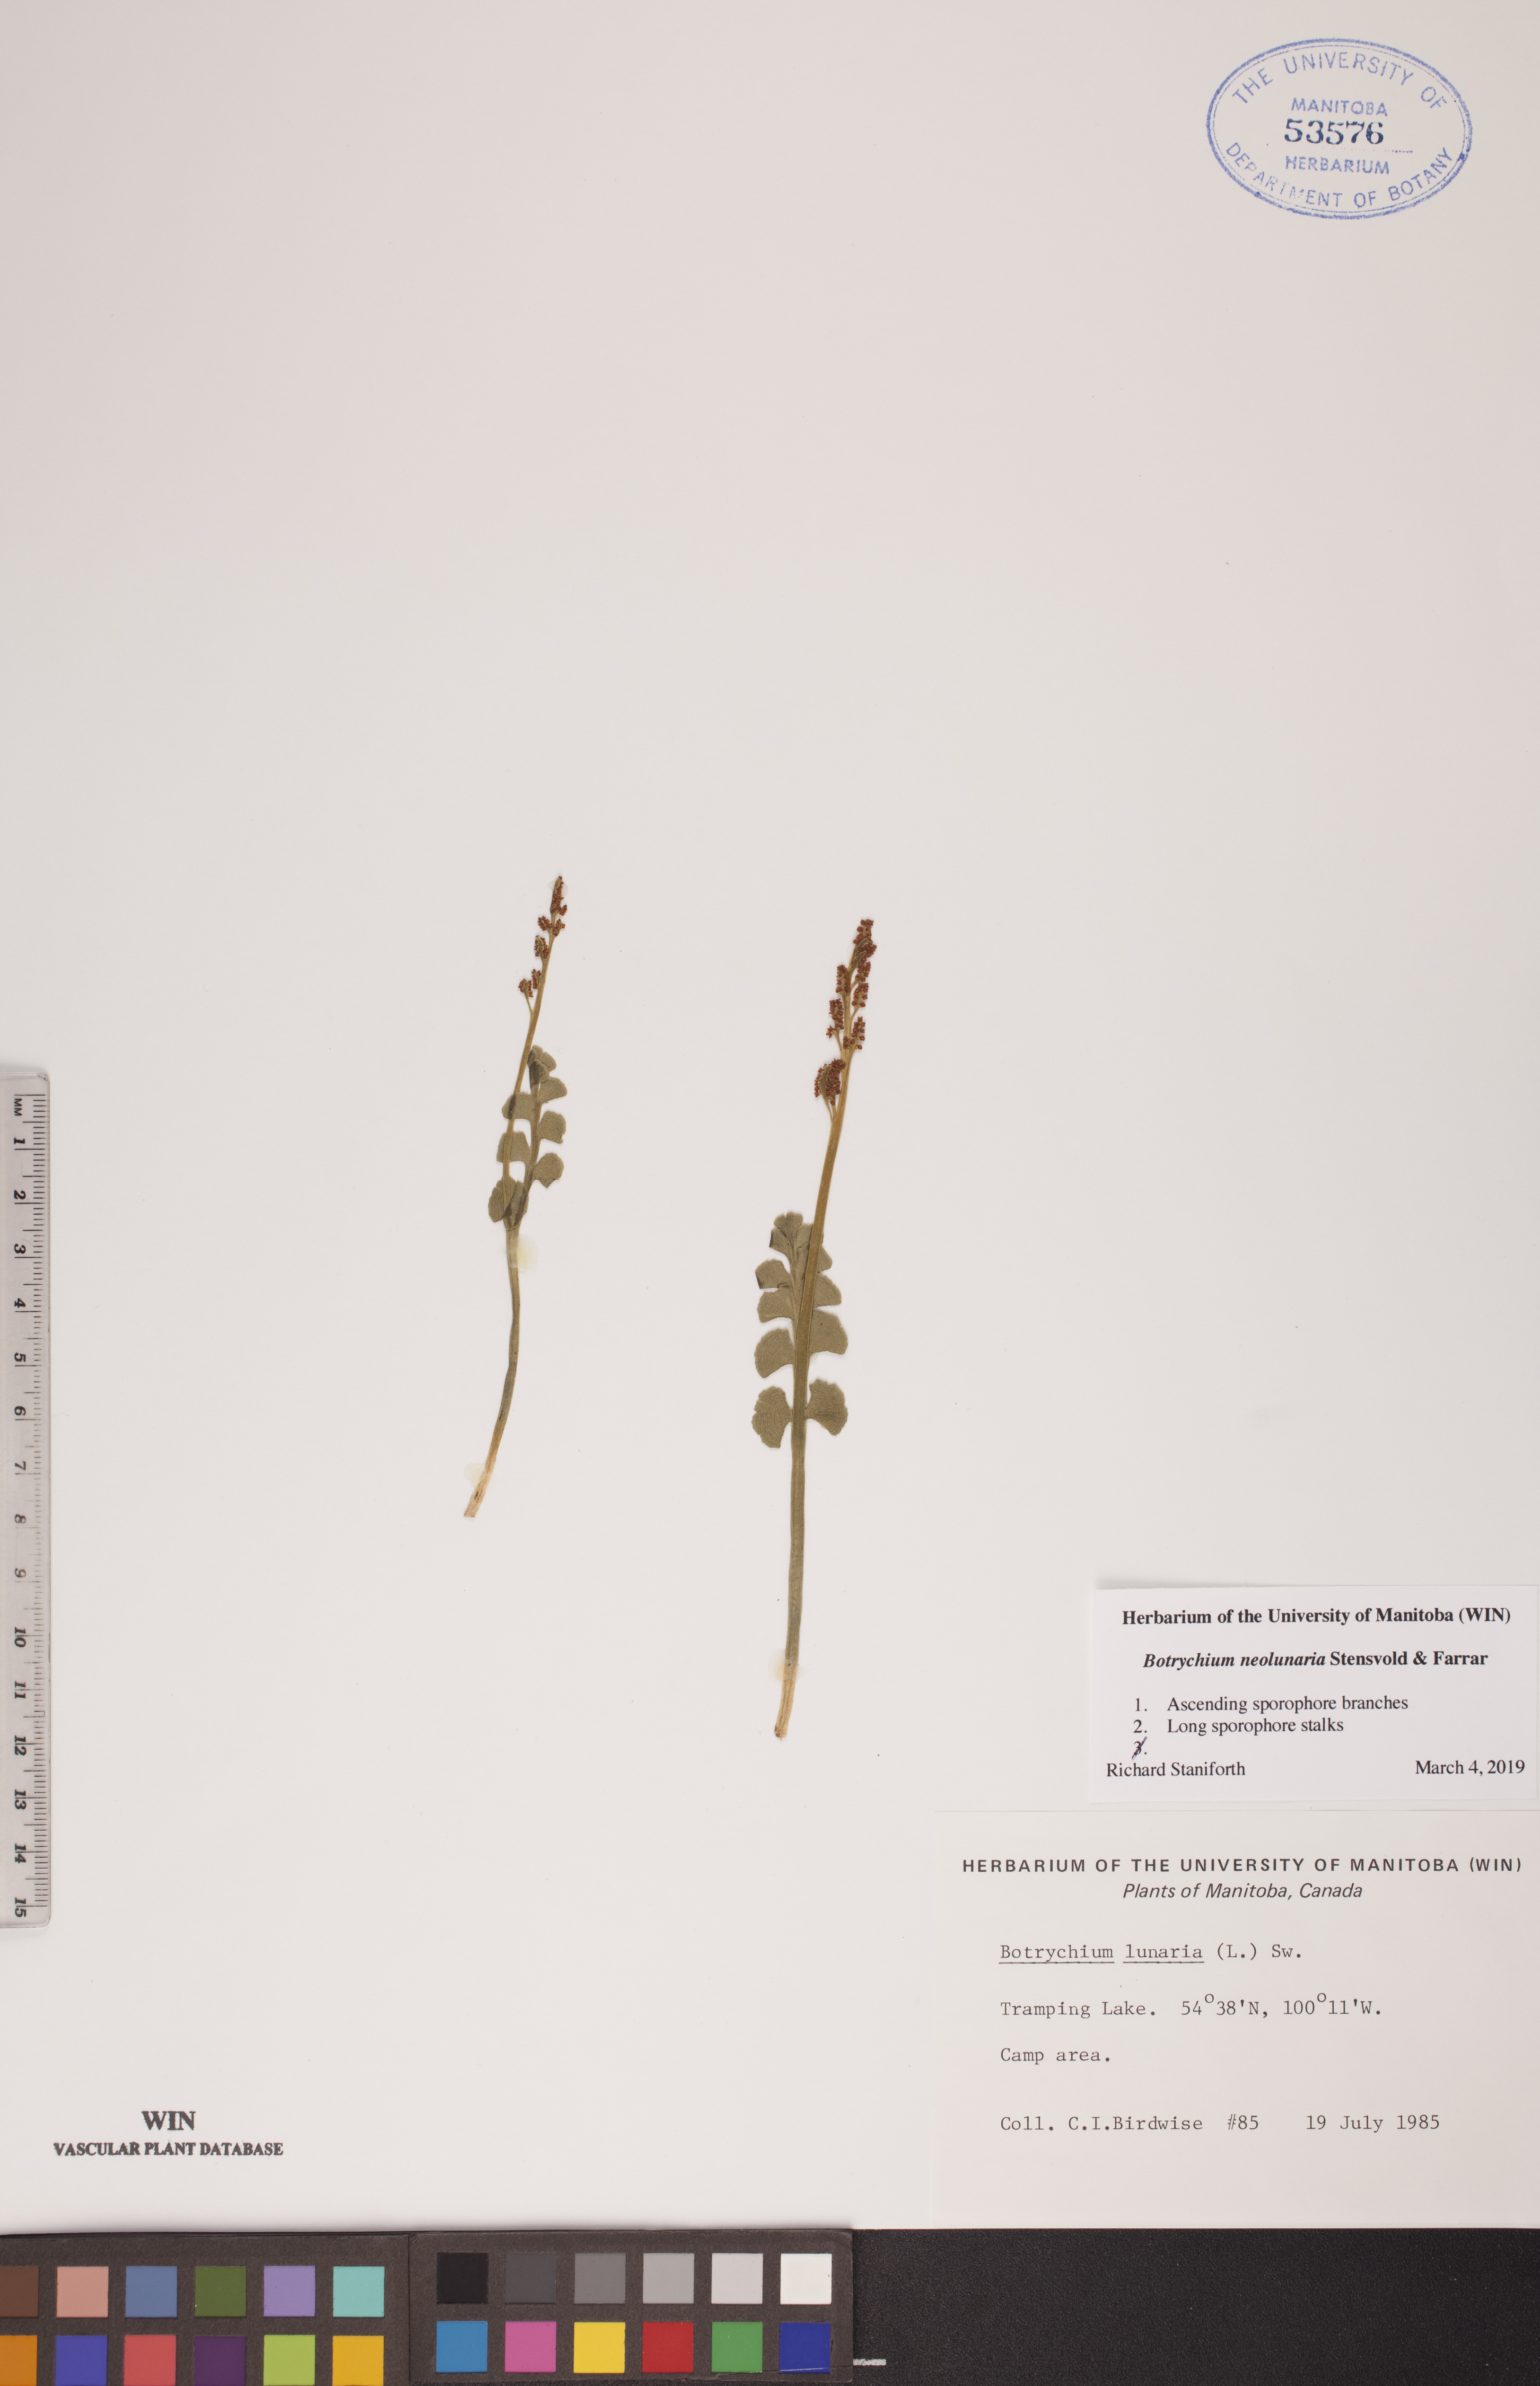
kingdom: Plantae
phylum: Tracheophyta
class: Polypodiopsida
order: Ophioglossales
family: Ophioglossaceae
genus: Botrychium
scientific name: Botrychium neolunaria
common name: New world moonwort
